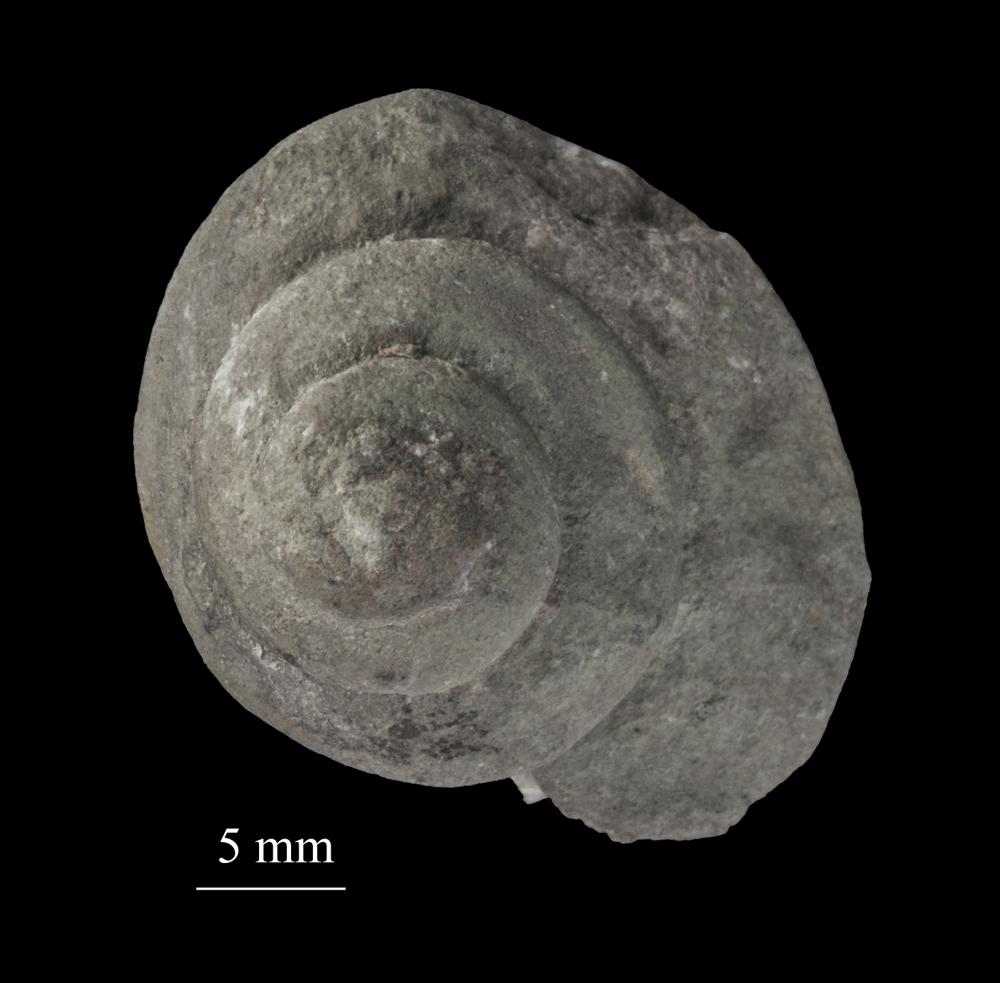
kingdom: Animalia
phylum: Mollusca
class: Gastropoda
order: Neogastropoda
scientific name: Neogastropoda
